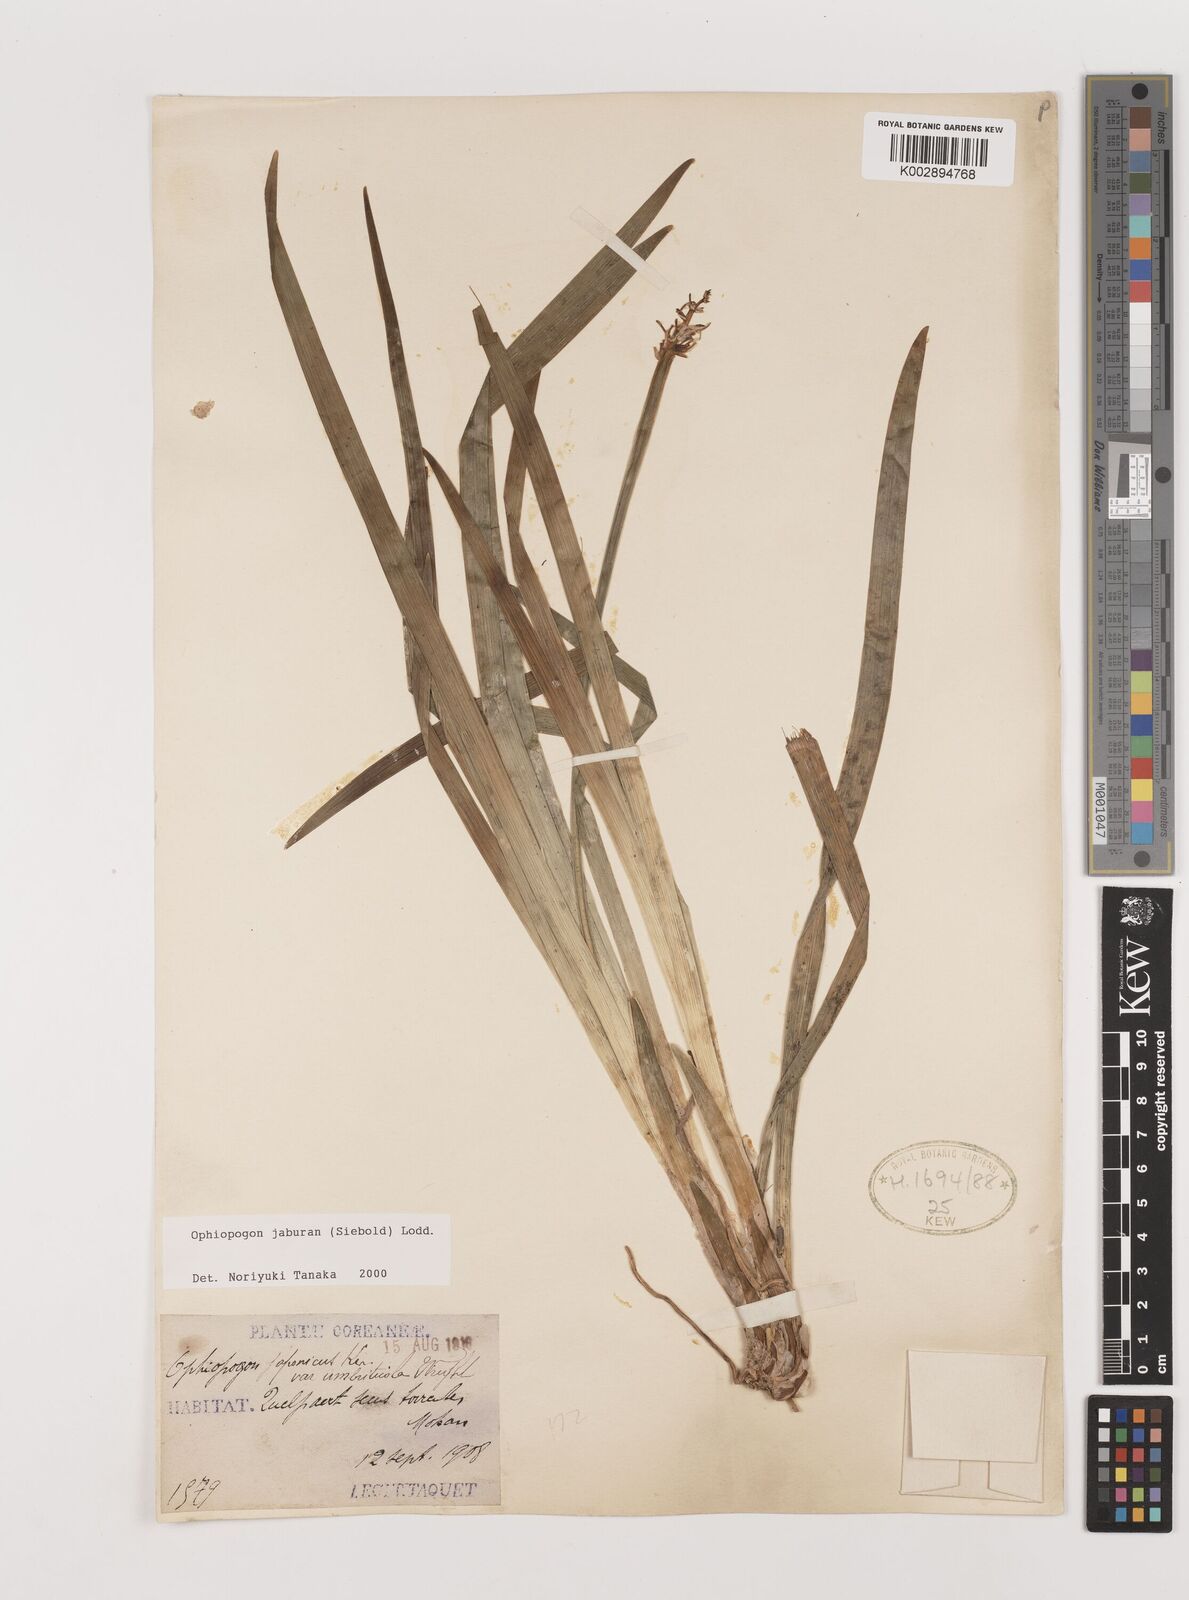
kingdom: Plantae
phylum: Tracheophyta
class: Liliopsida
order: Asparagales
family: Asparagaceae
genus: Ophiopogon
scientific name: Ophiopogon jaburan
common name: Lilyturf
